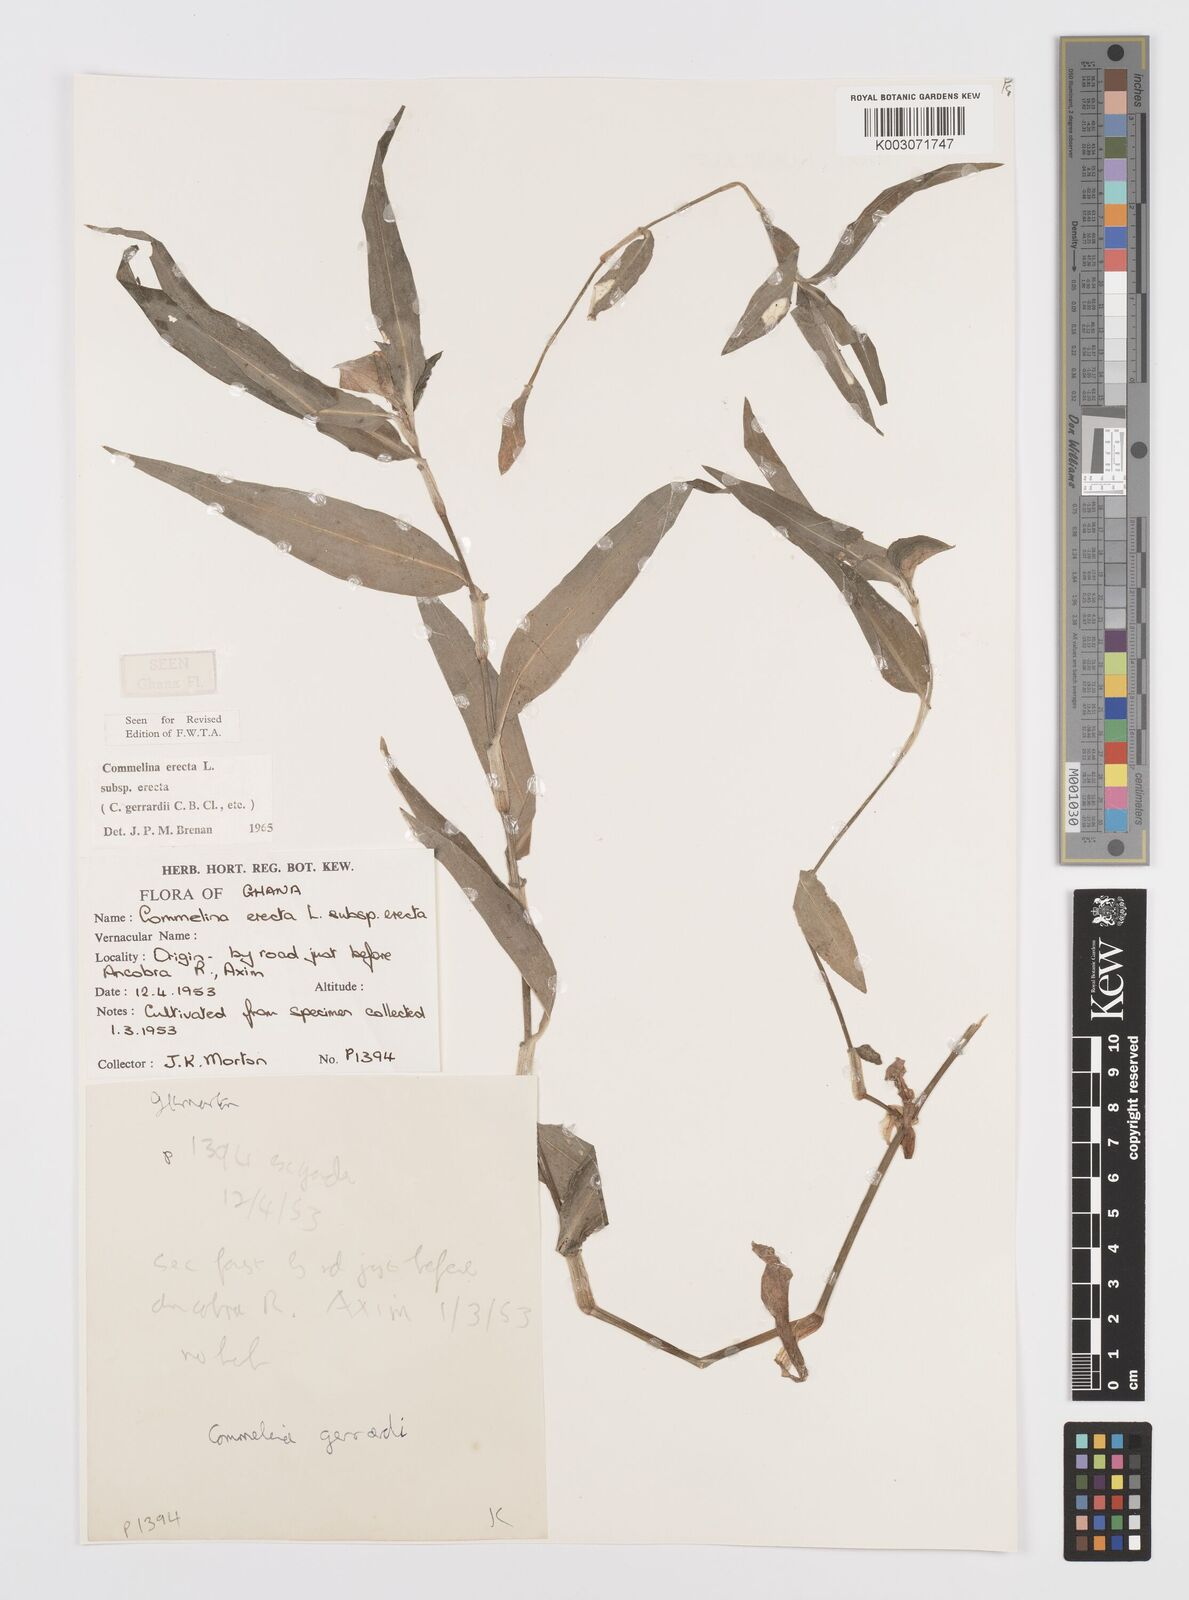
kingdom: Plantae
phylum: Tracheophyta
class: Liliopsida
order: Commelinales
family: Commelinaceae
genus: Commelina
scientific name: Commelina erecta
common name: Blousel blommetjie
